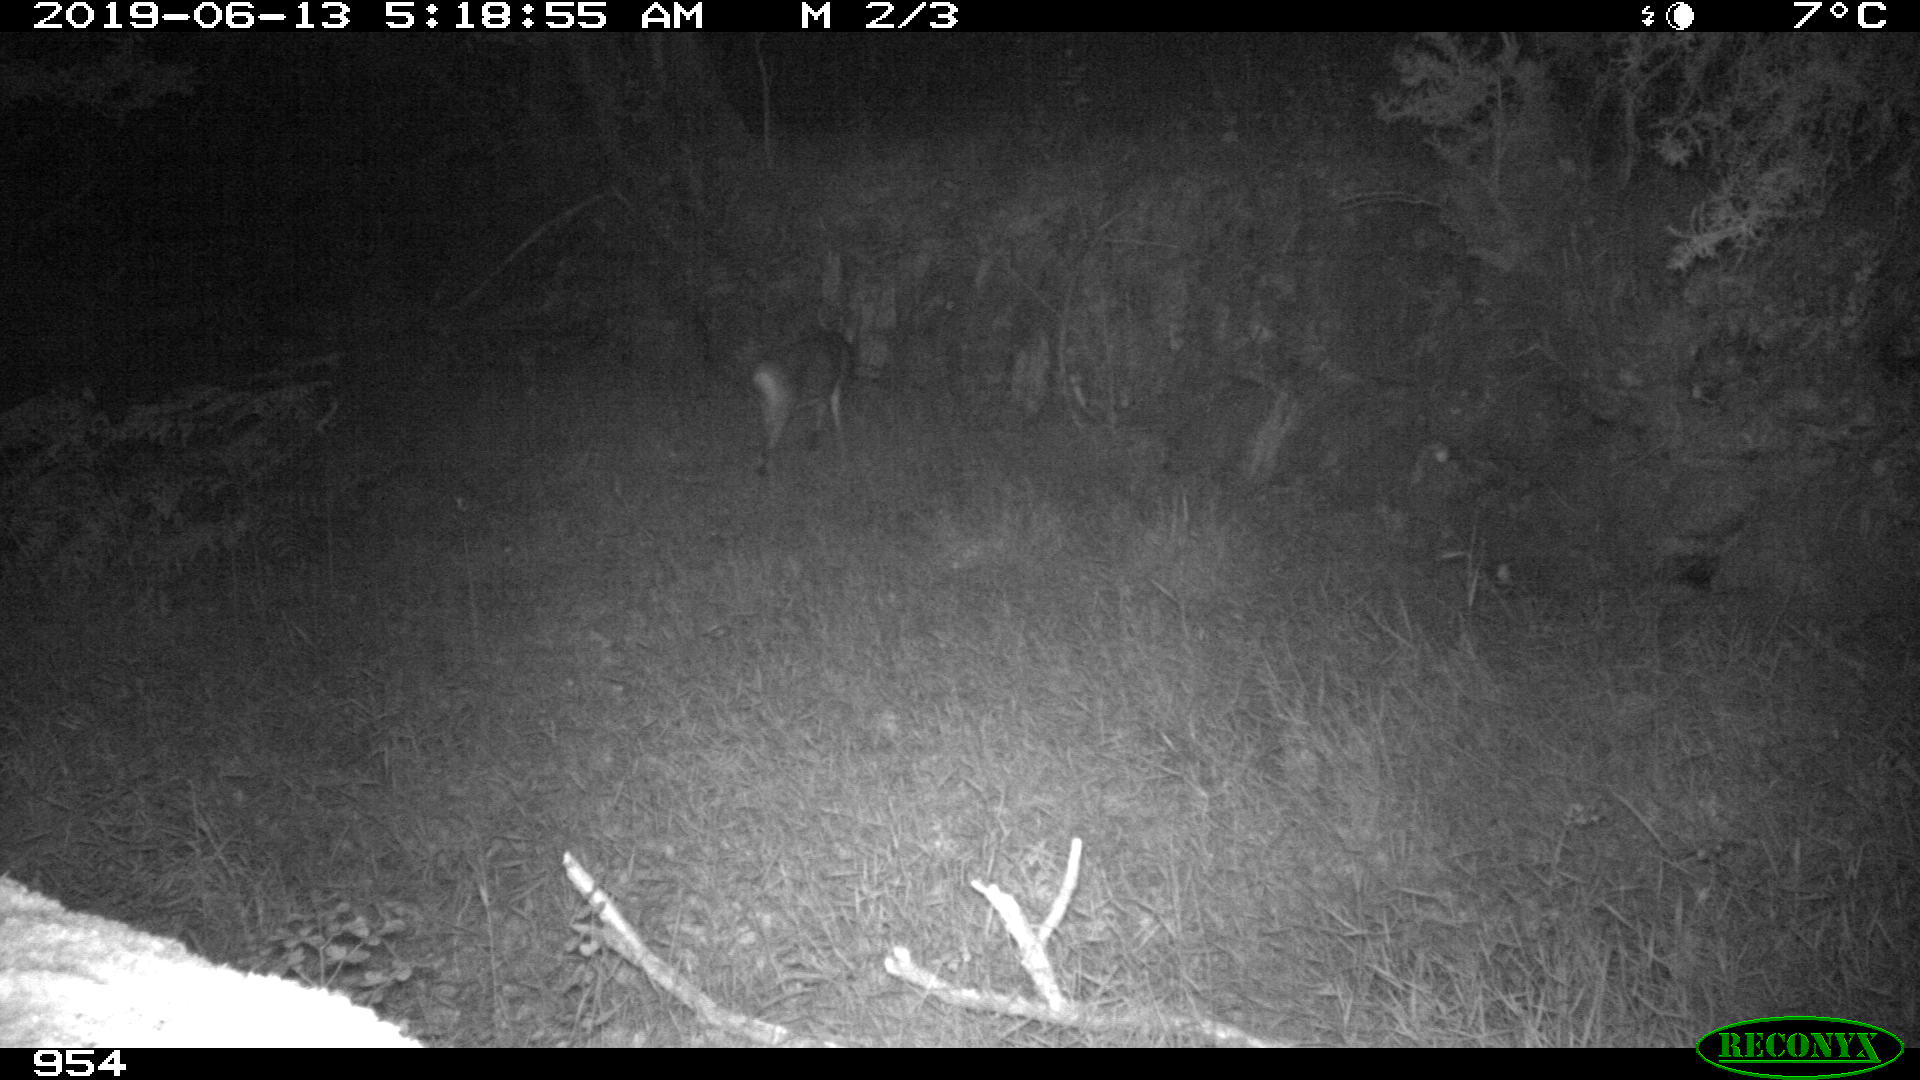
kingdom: Animalia
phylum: Chordata
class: Mammalia
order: Artiodactyla
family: Cervidae
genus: Capreolus
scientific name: Capreolus capreolus
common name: Western roe deer
